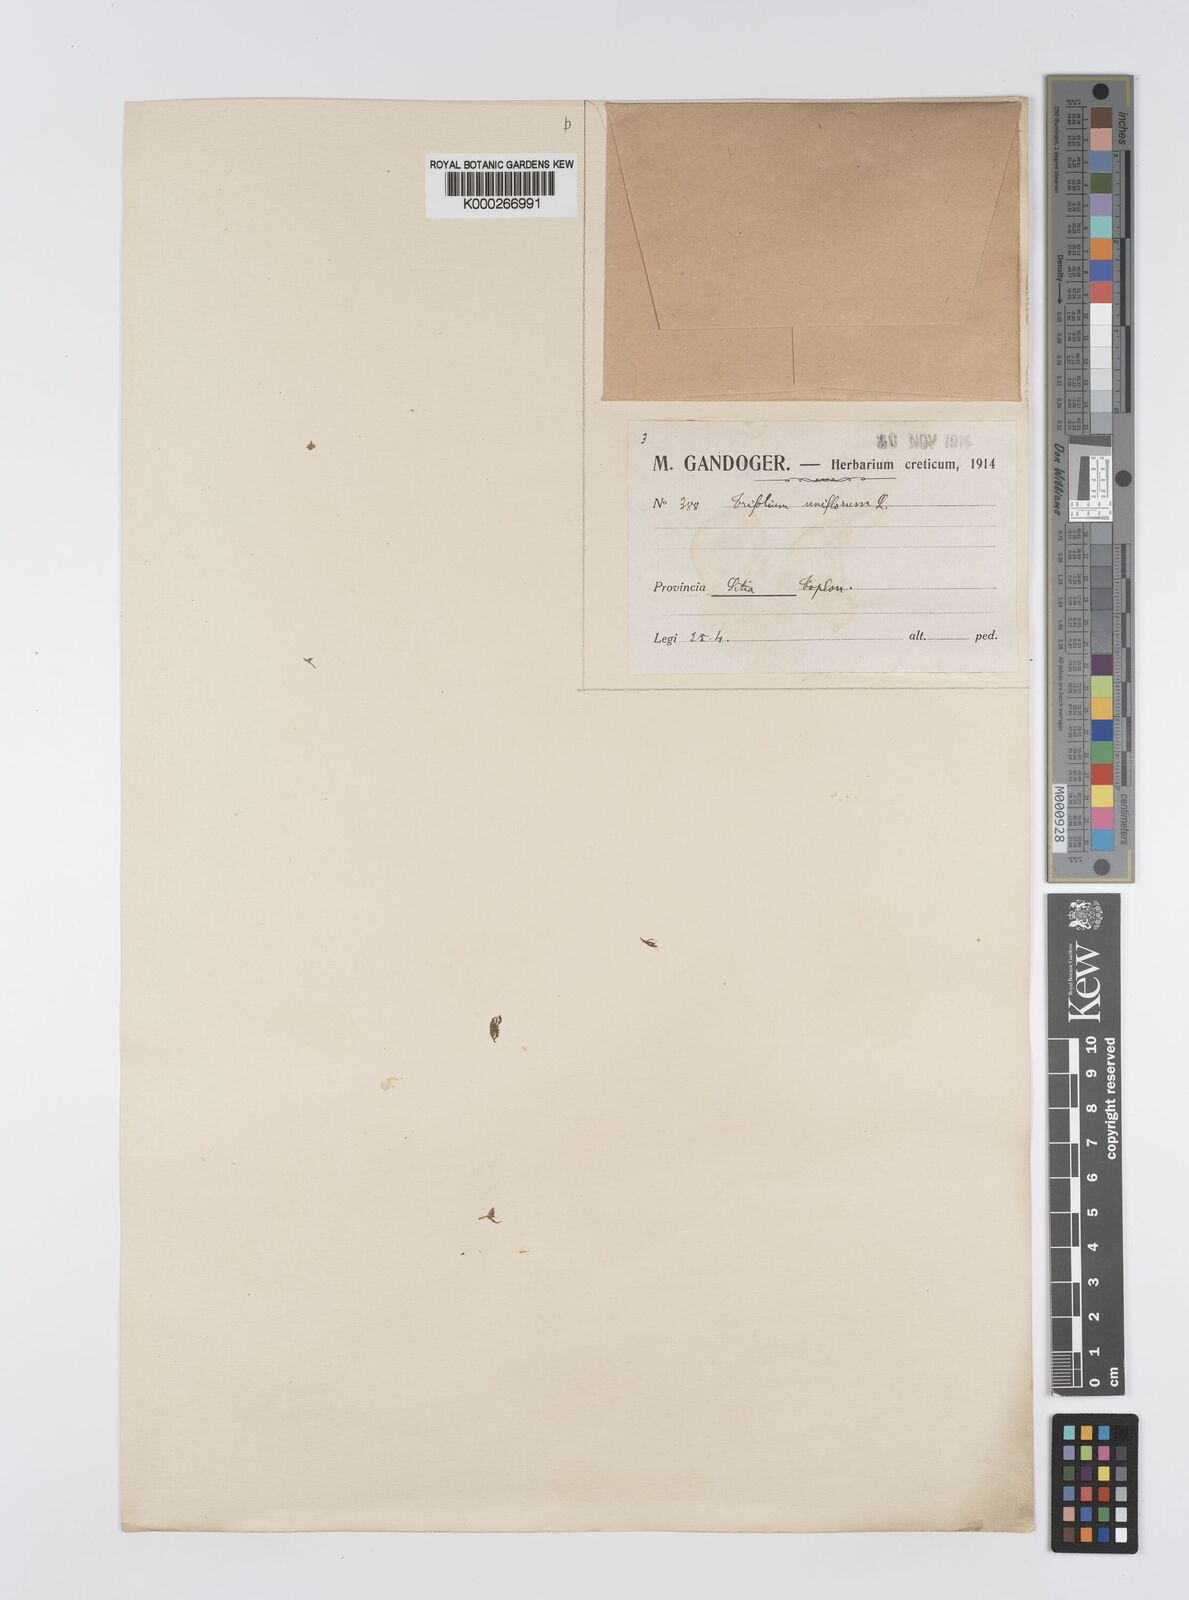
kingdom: Plantae
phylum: Tracheophyta
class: Magnoliopsida
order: Fabales
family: Fabaceae
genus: Trifolium
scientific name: Trifolium uniflorum
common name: One-flower clover
